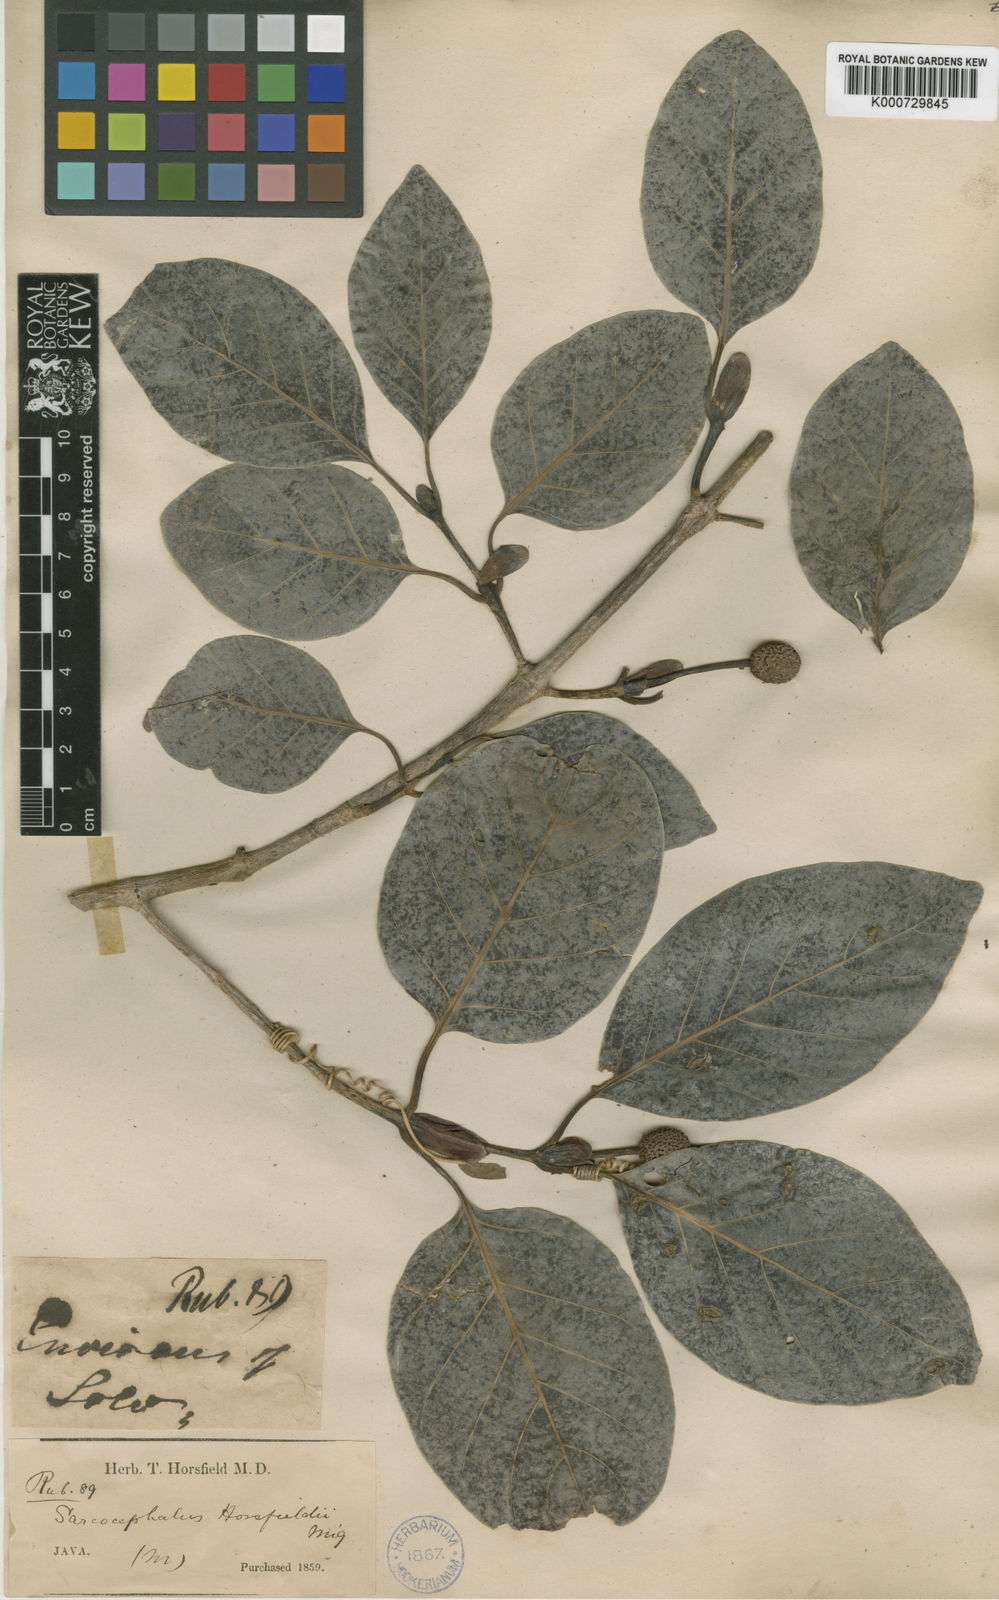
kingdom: Plantae
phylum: Tracheophyta
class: Magnoliopsida
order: Gentianales
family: Rubiaceae
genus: Nauclea
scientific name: Nauclea officinalis
